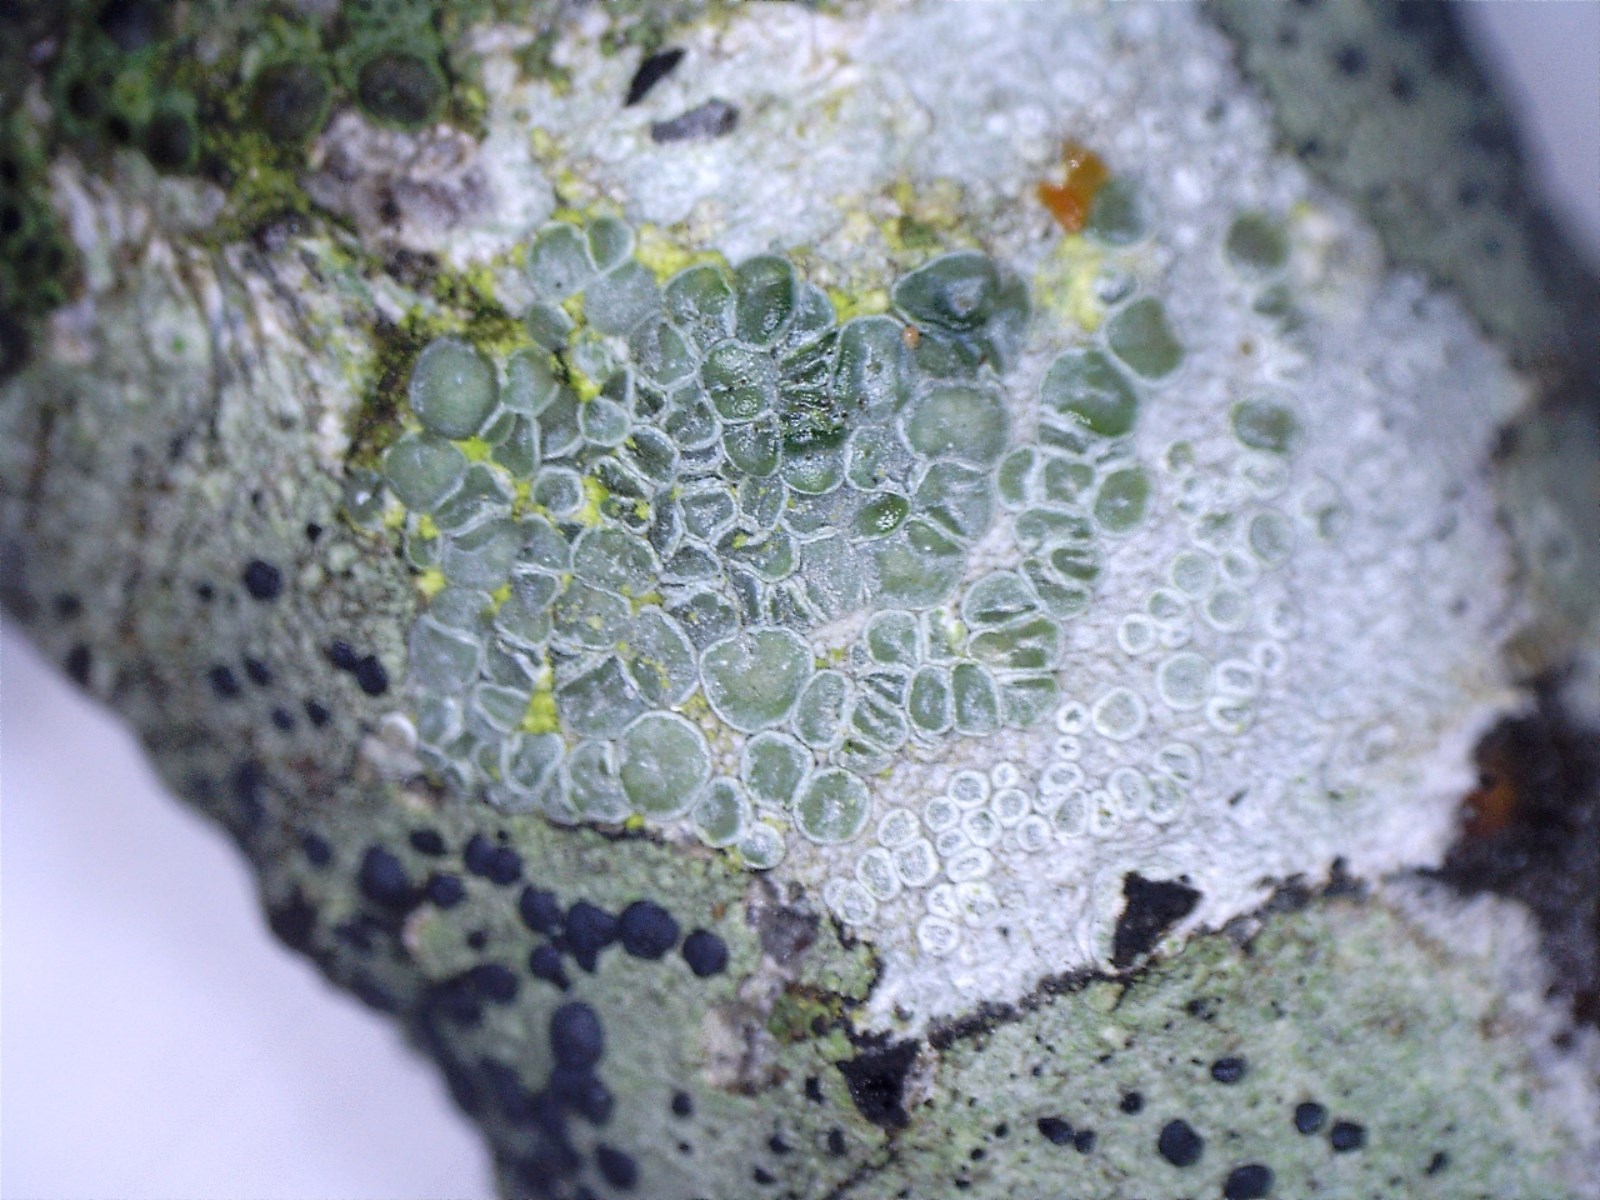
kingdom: Fungi
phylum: Ascomycota
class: Lecanoromycetes
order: Lecanorales
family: Lecanoraceae
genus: Glaucomaria
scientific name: Glaucomaria carpinea
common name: hviddugget kantskivelav
